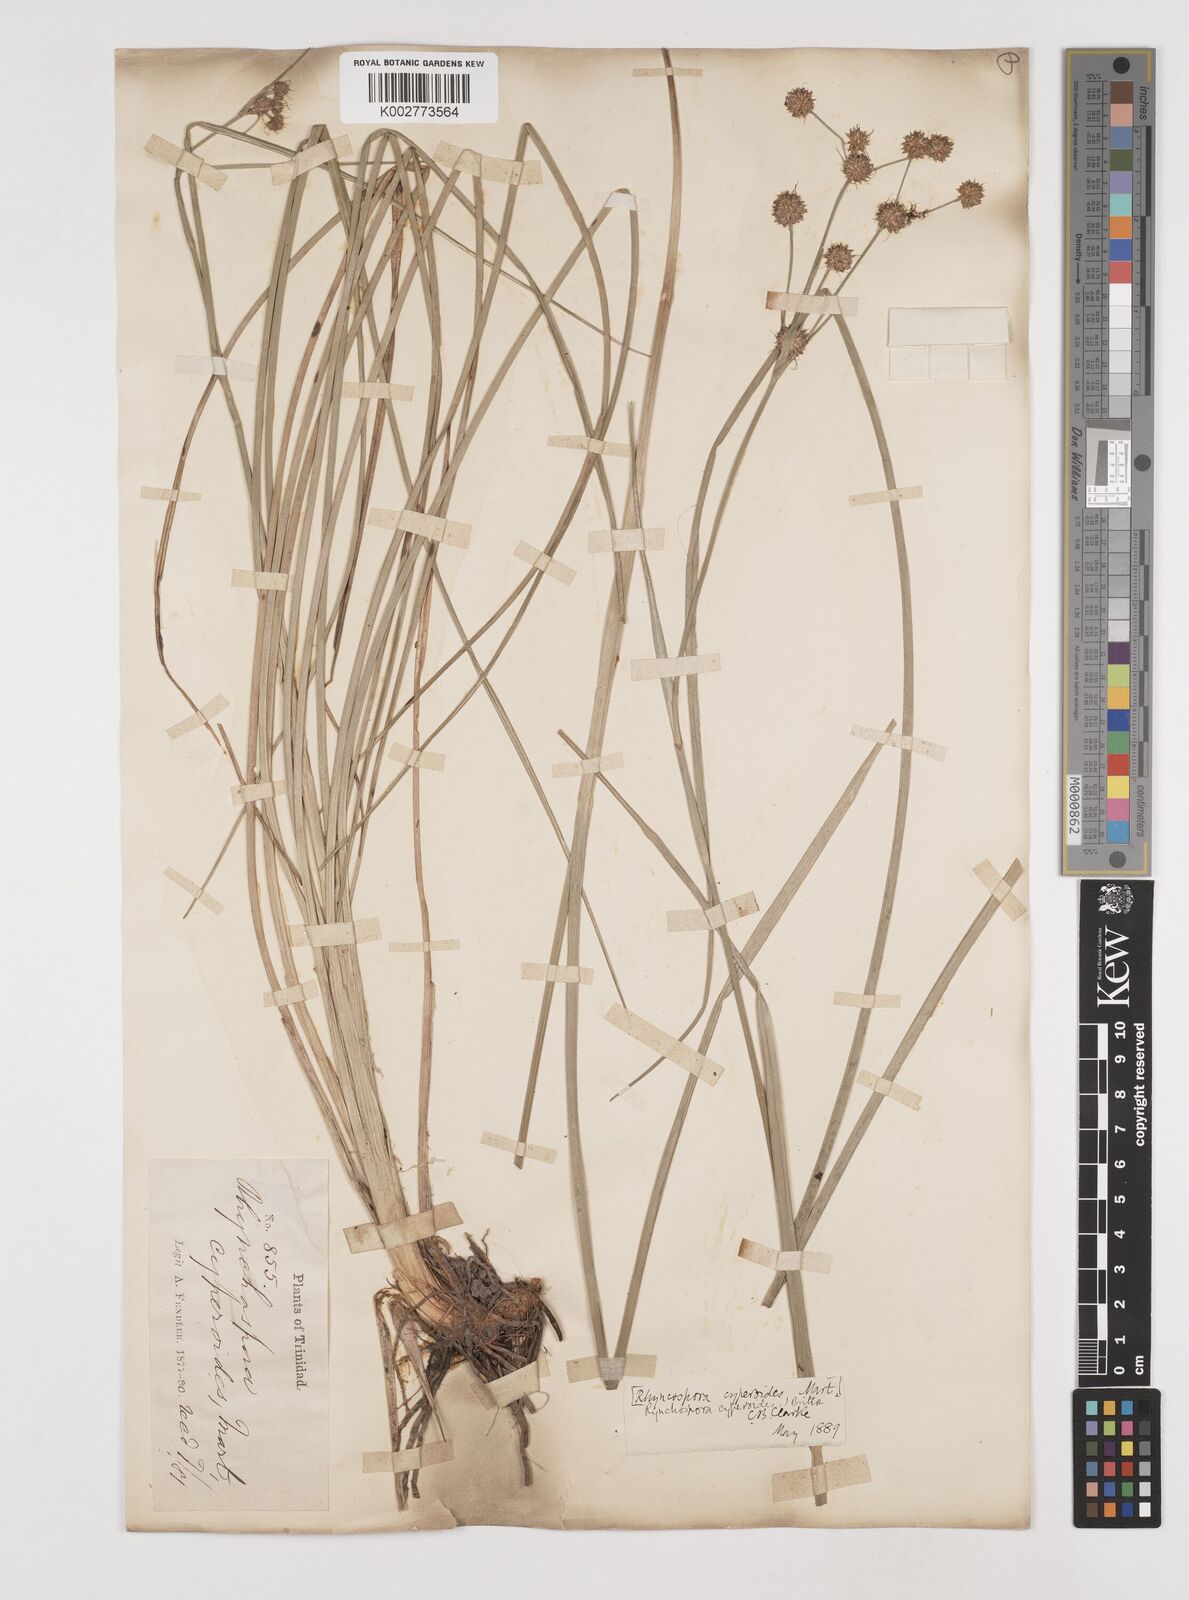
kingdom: Plantae
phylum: Tracheophyta
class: Liliopsida
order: Poales
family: Cyperaceae
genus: Rhynchospora
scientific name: Rhynchospora holoschoenoides
